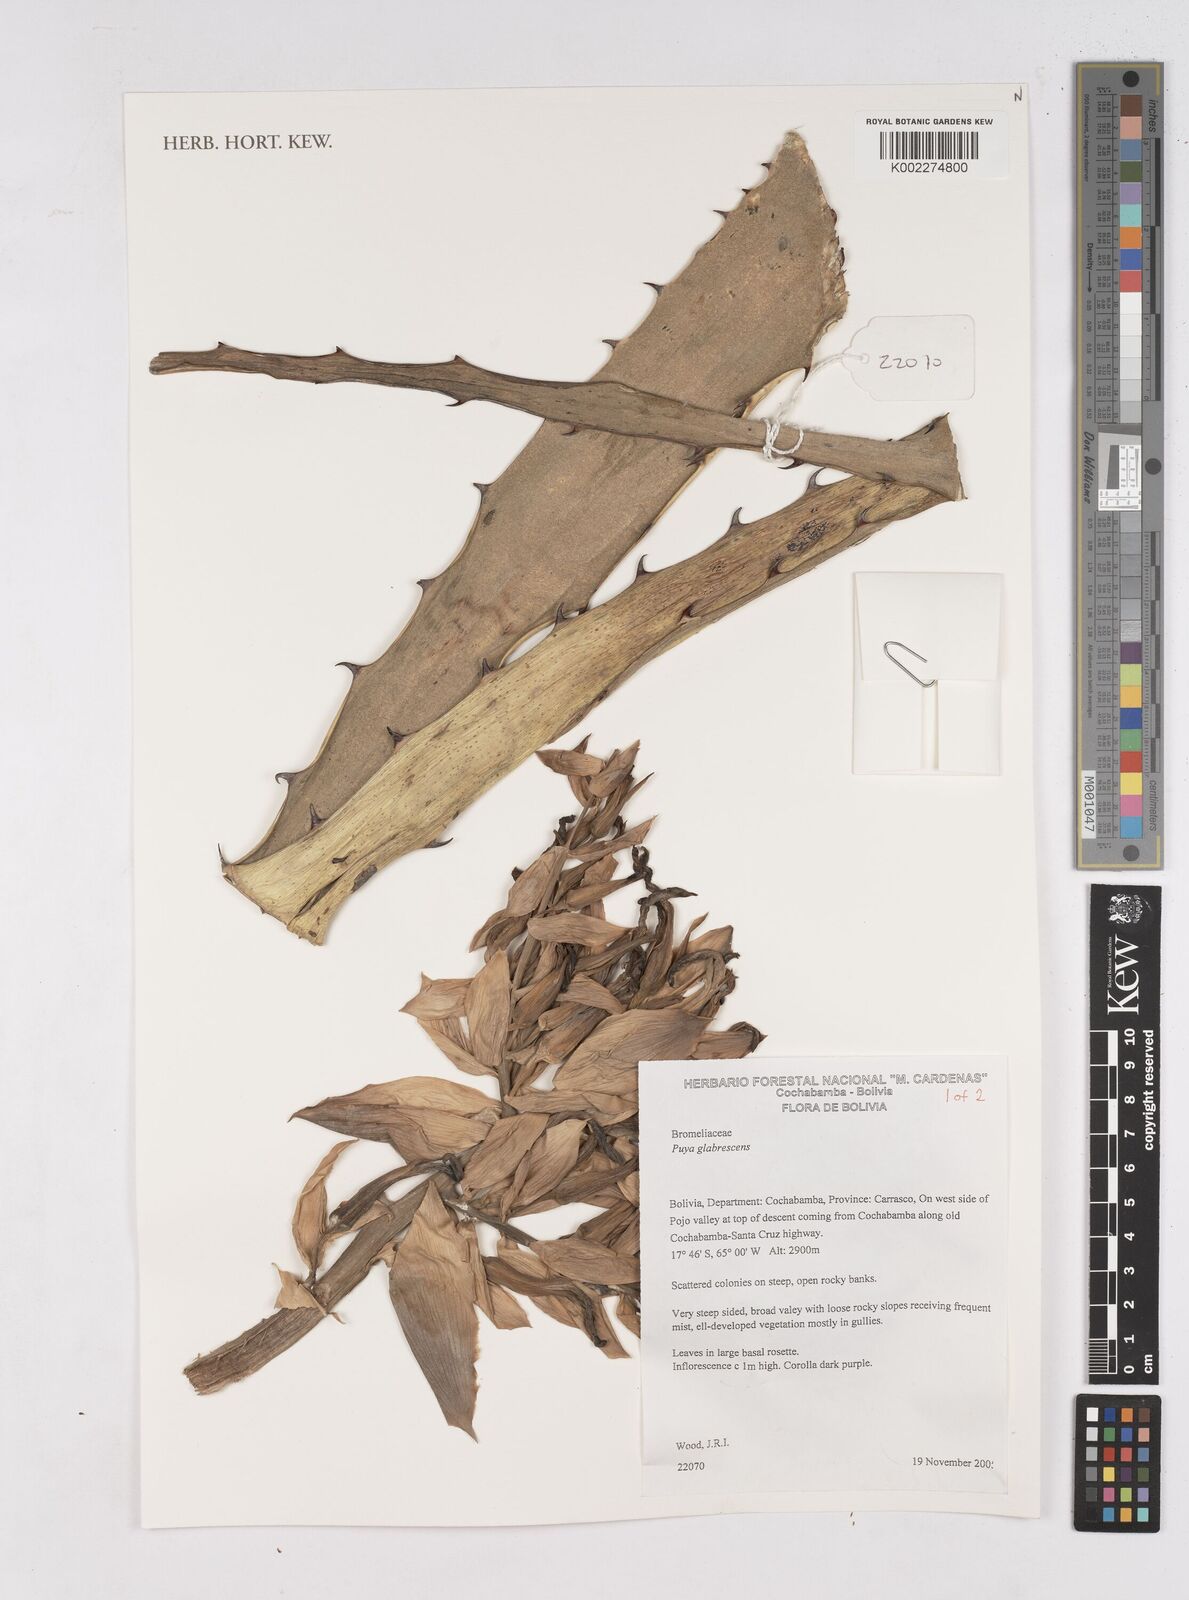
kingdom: Plantae
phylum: Tracheophyta
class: Liliopsida
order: Poales
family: Bromeliaceae
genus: Puya
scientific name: Puya glabrescens
